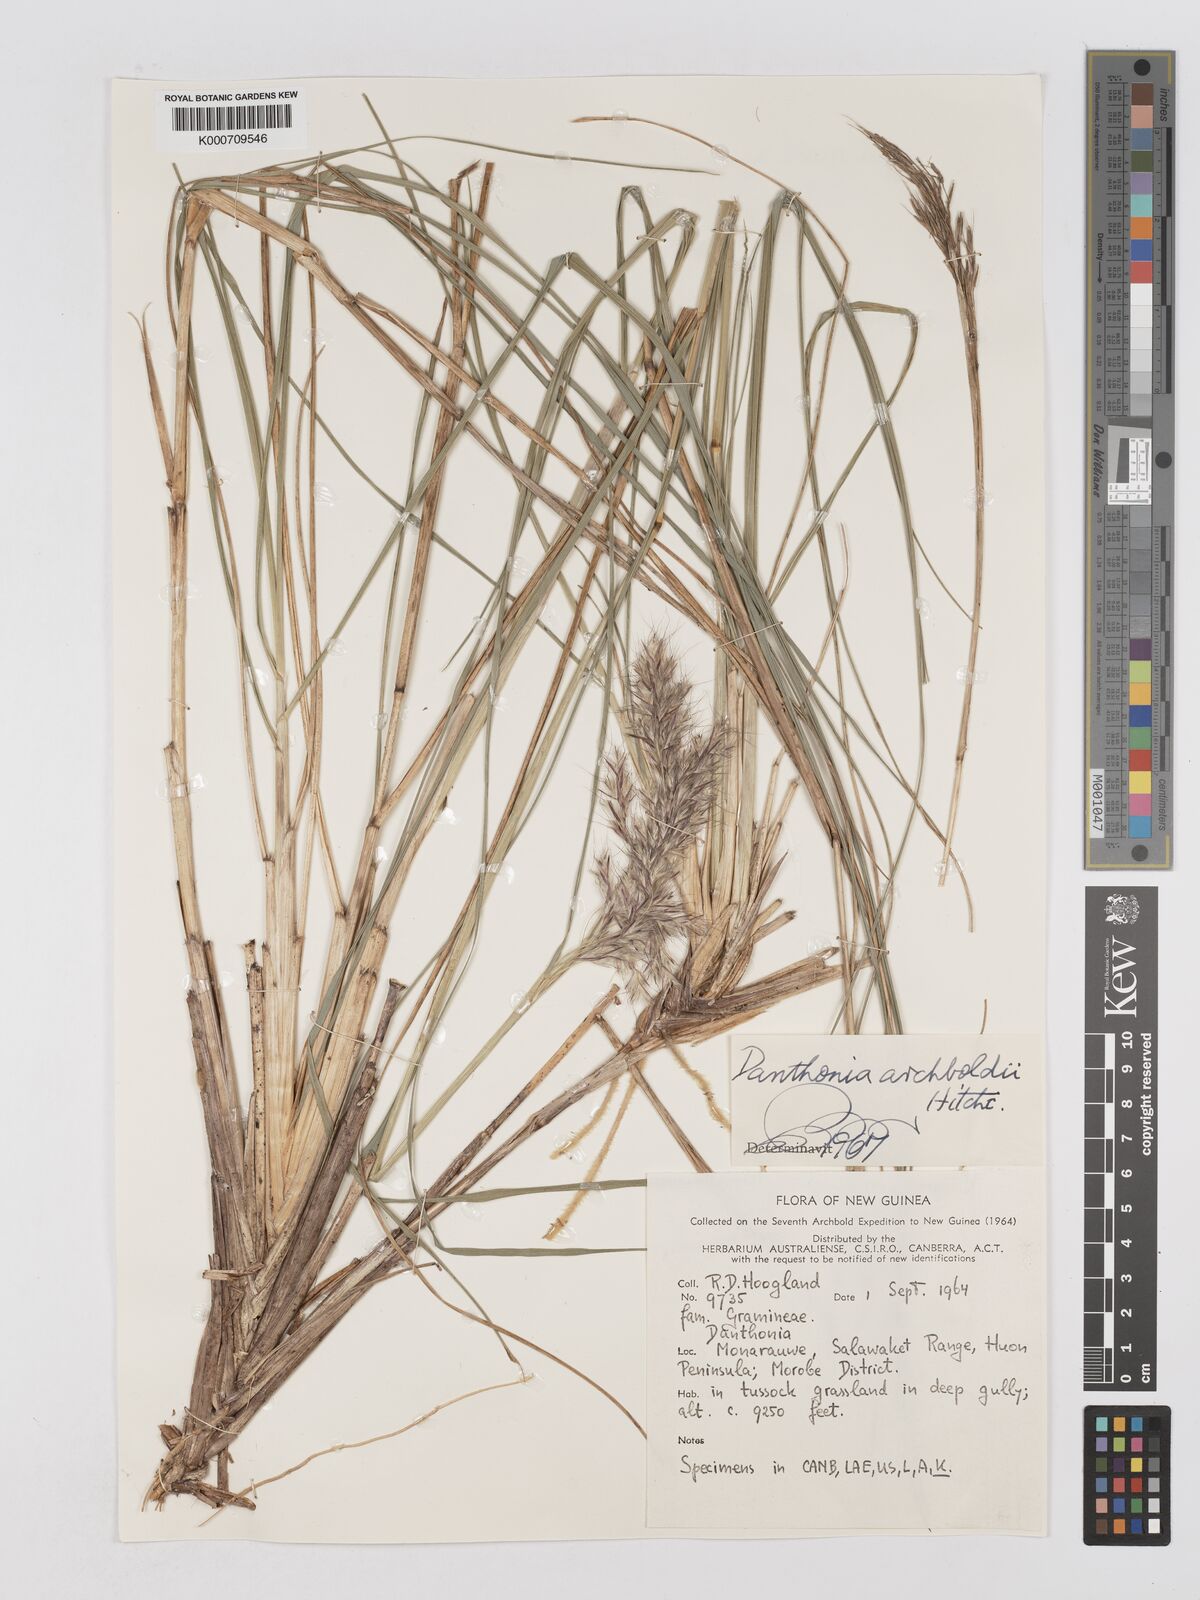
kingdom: Plantae
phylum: Tracheophyta
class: Liliopsida
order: Poales
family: Poaceae
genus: Chimaerochloa
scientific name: Chimaerochloa archboldii
